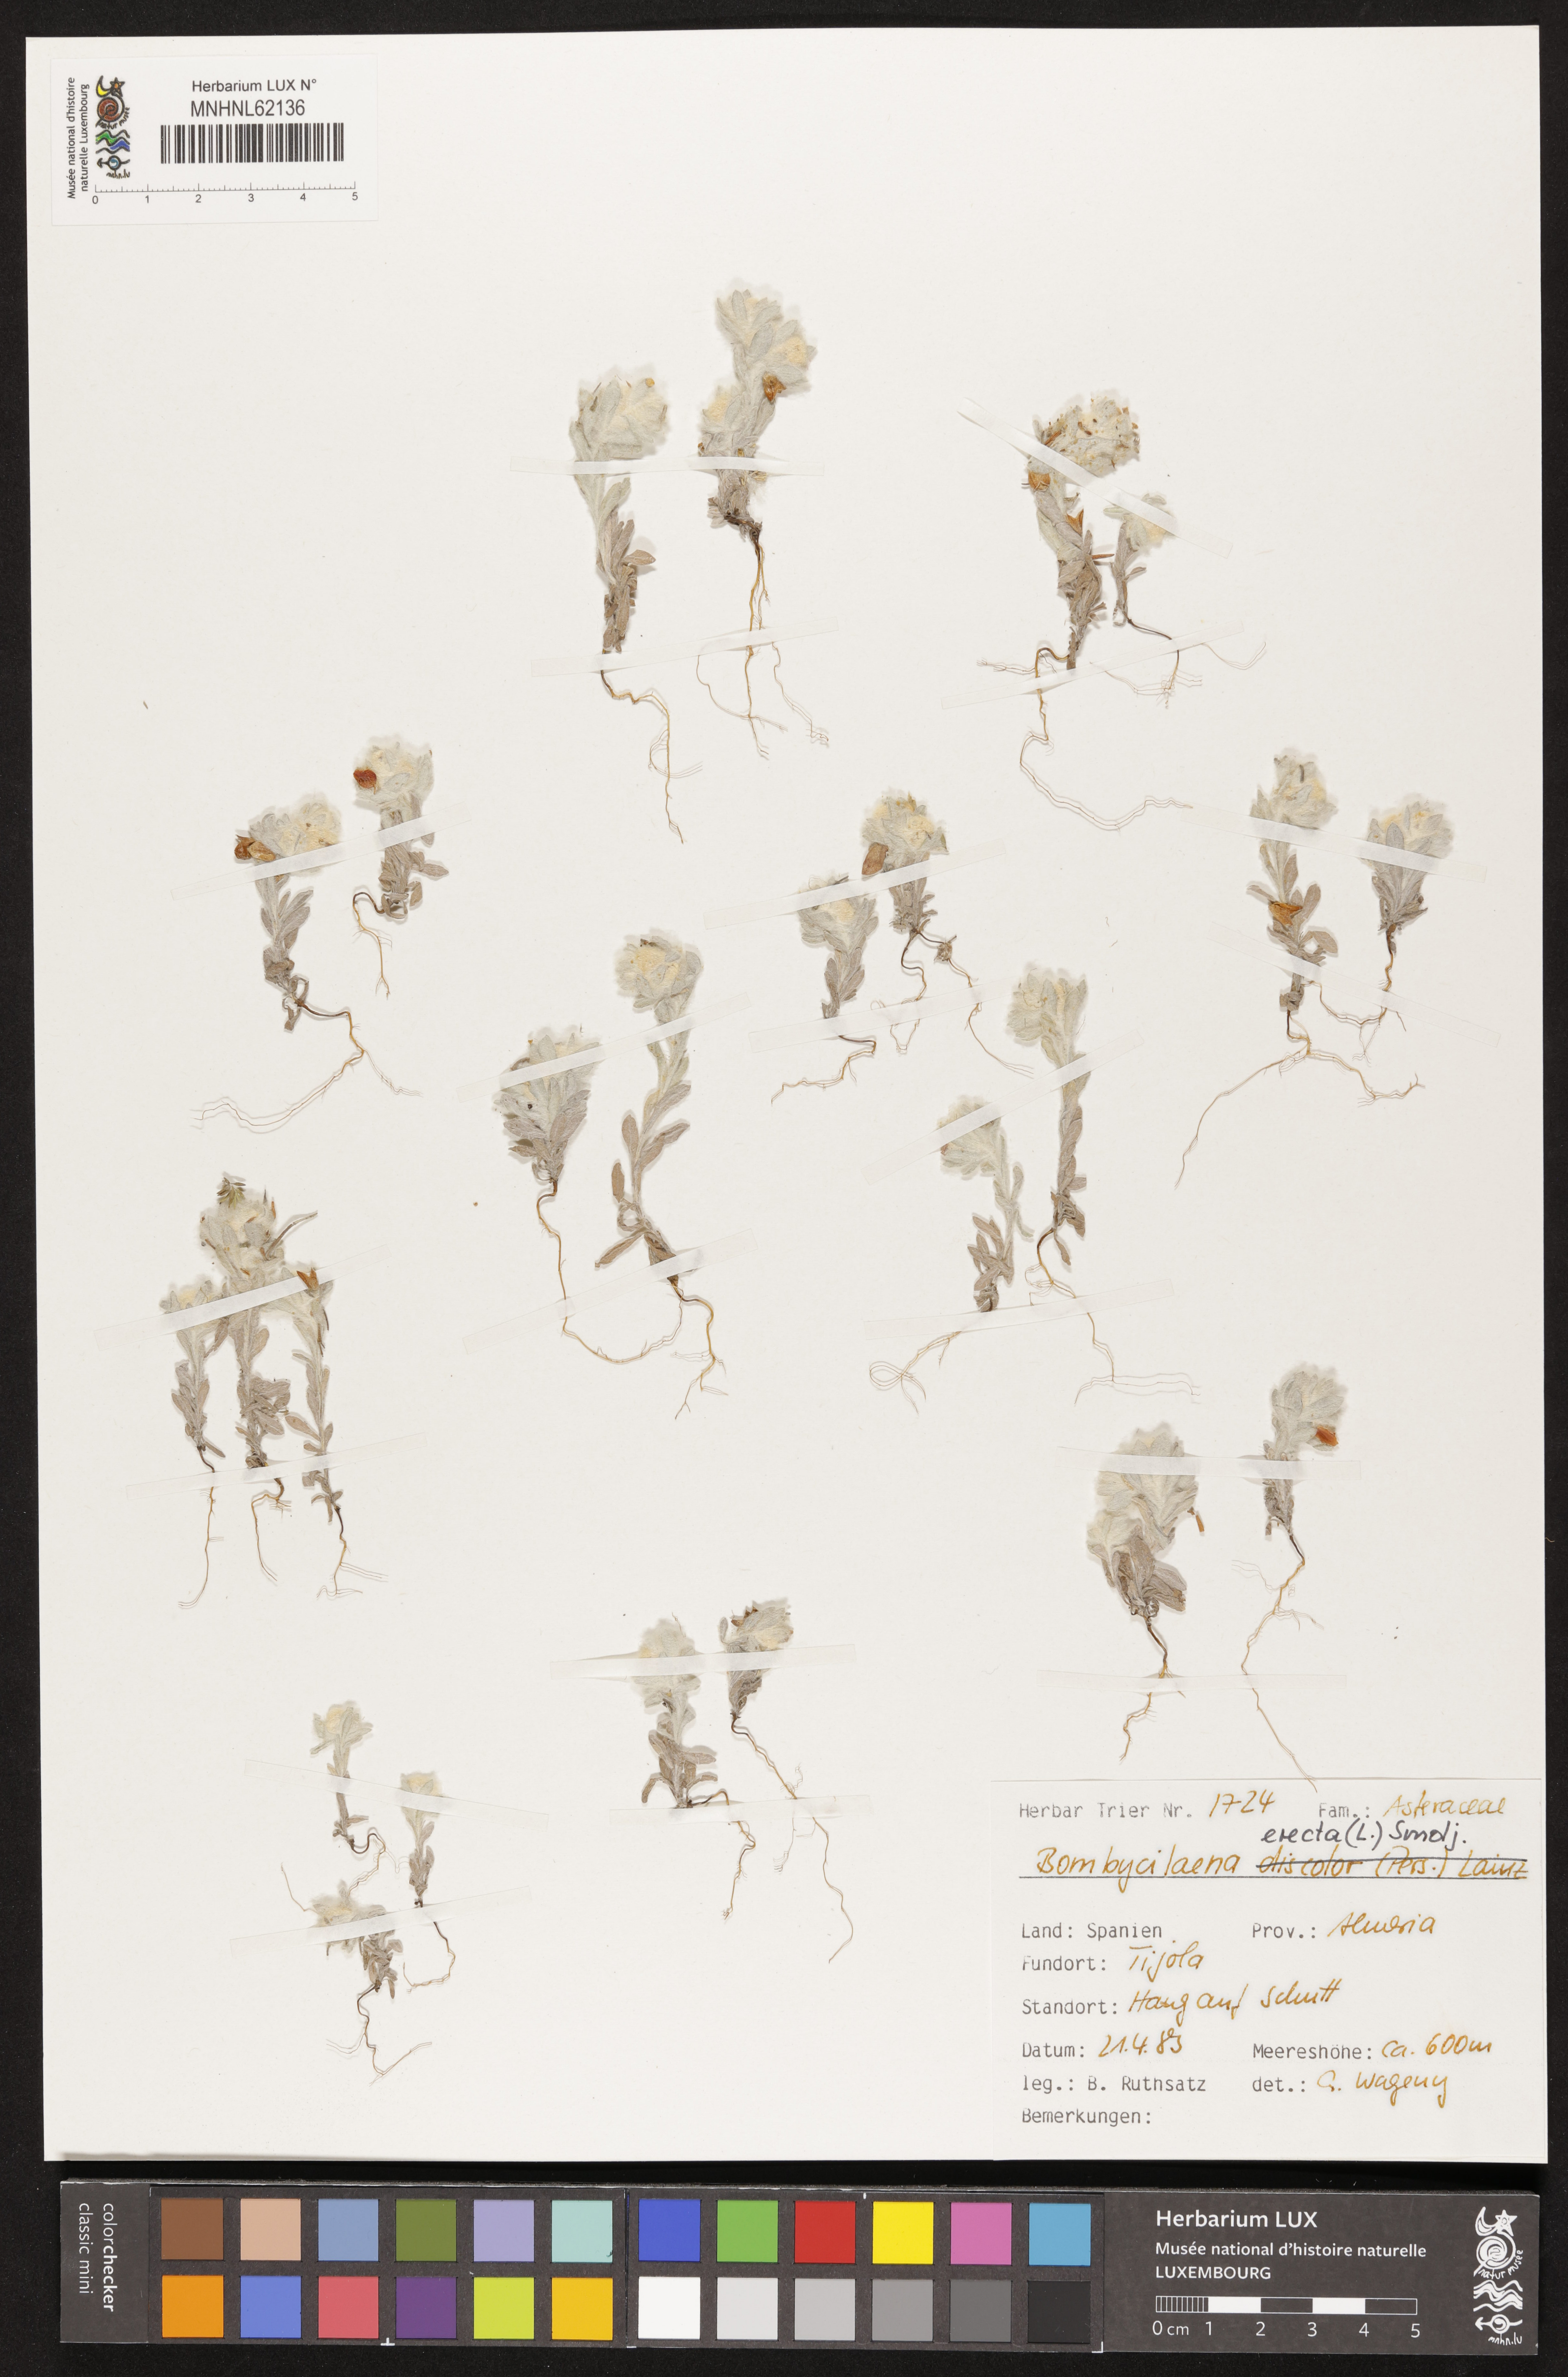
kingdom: Plantae
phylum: Tracheophyta
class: Magnoliopsida
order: Asterales
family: Asteraceae
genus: Bombycilaena
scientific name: Bombycilaena erecta
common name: Micropus
